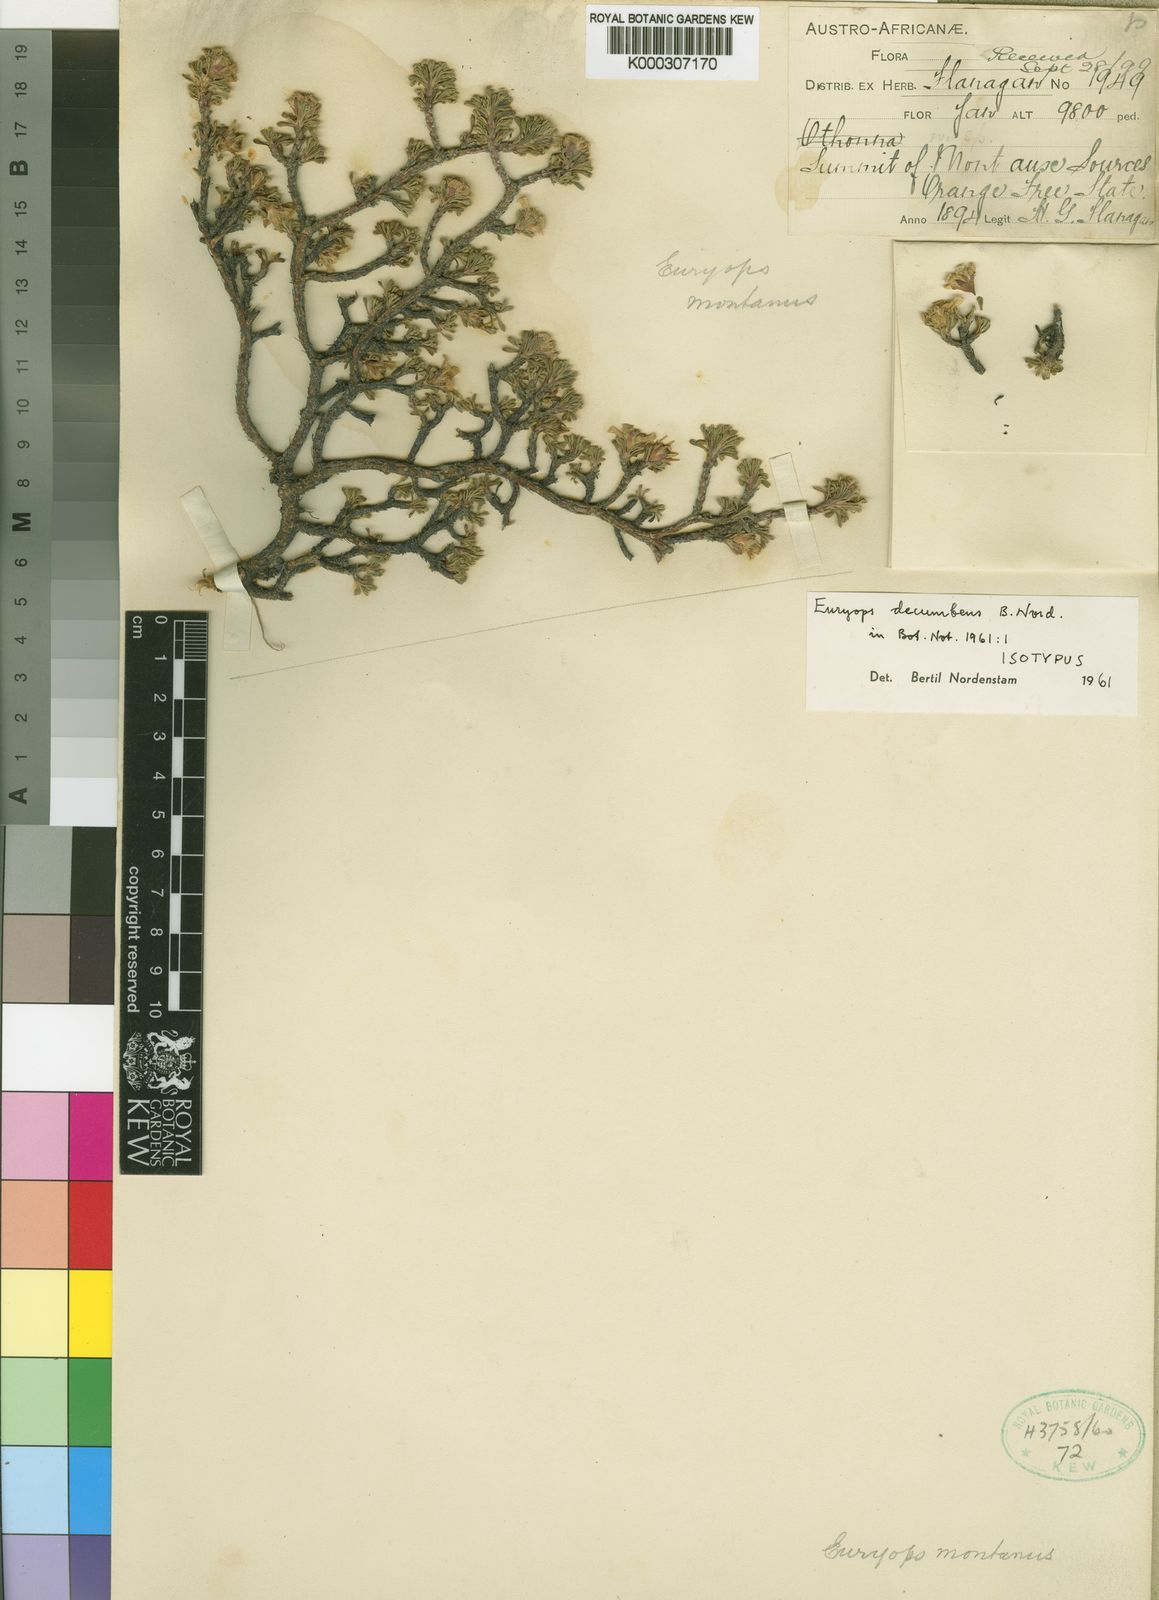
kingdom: Plantae
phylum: Tracheophyta
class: Magnoliopsida
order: Asterales
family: Asteraceae
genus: Euryops
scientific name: Euryops decumbens
